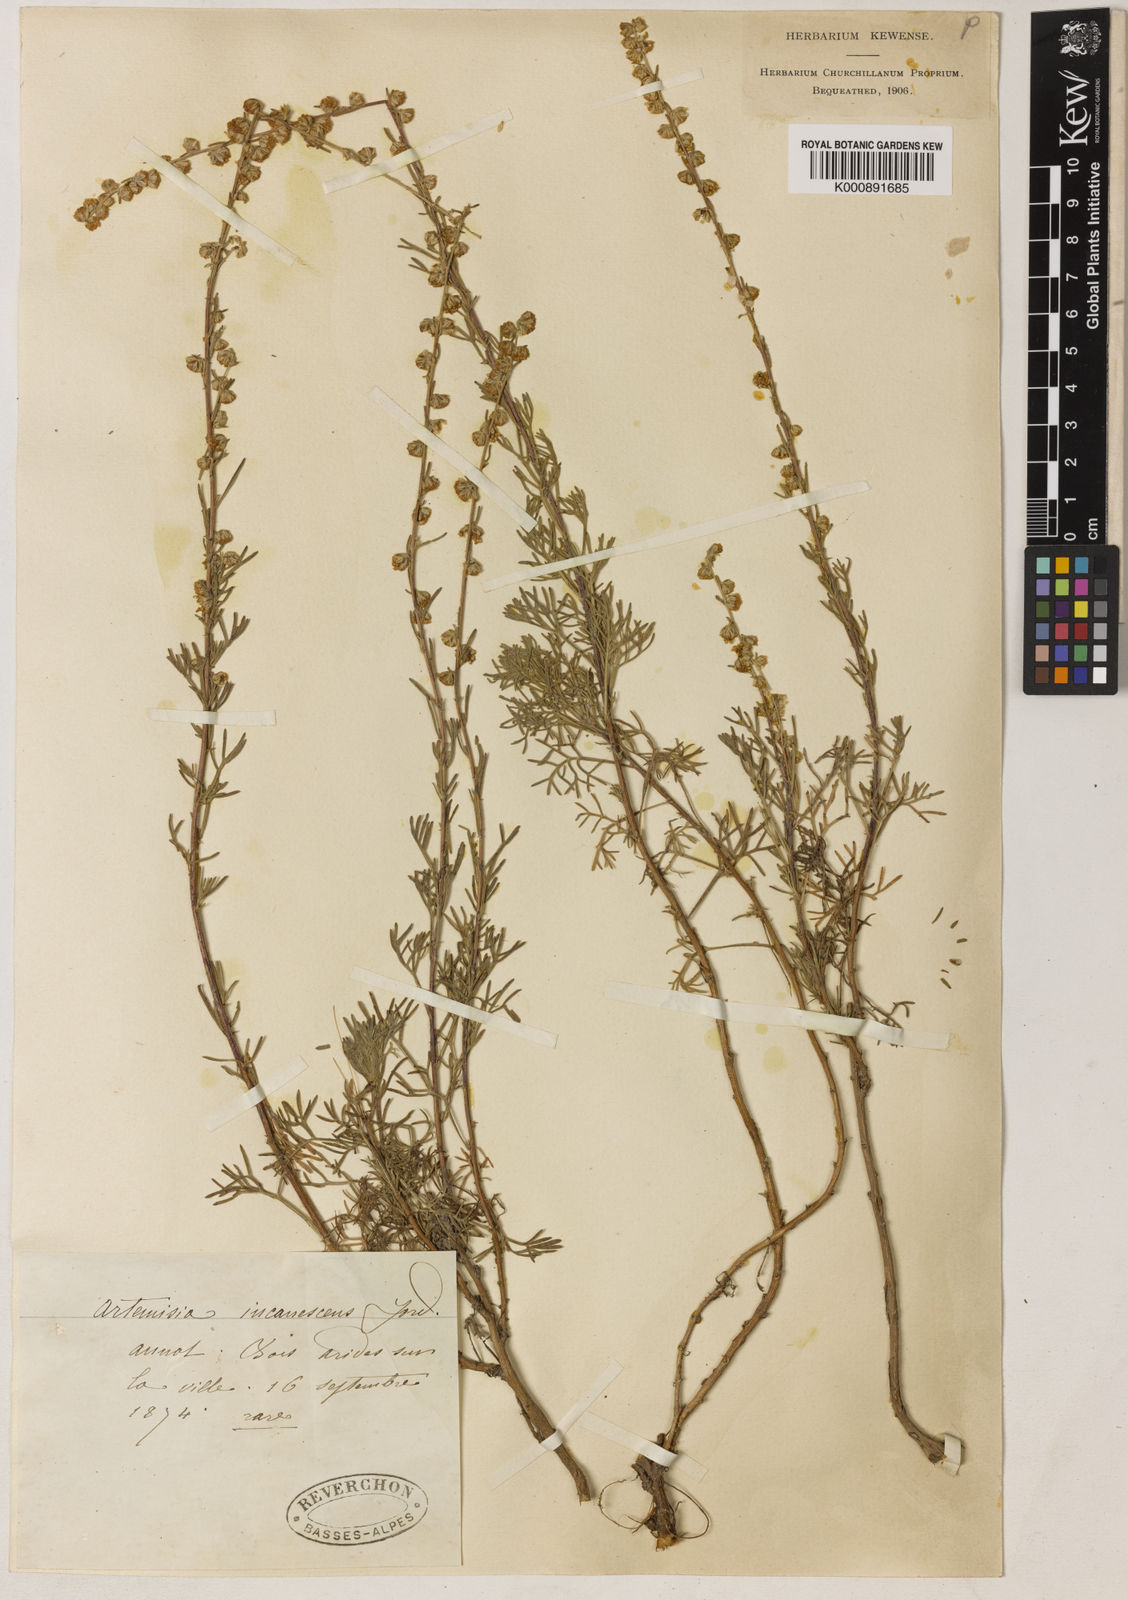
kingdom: Plantae
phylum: Tracheophyta
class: Magnoliopsida
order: Asterales
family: Asteraceae
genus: Artemisia
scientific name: Artemisia alba
